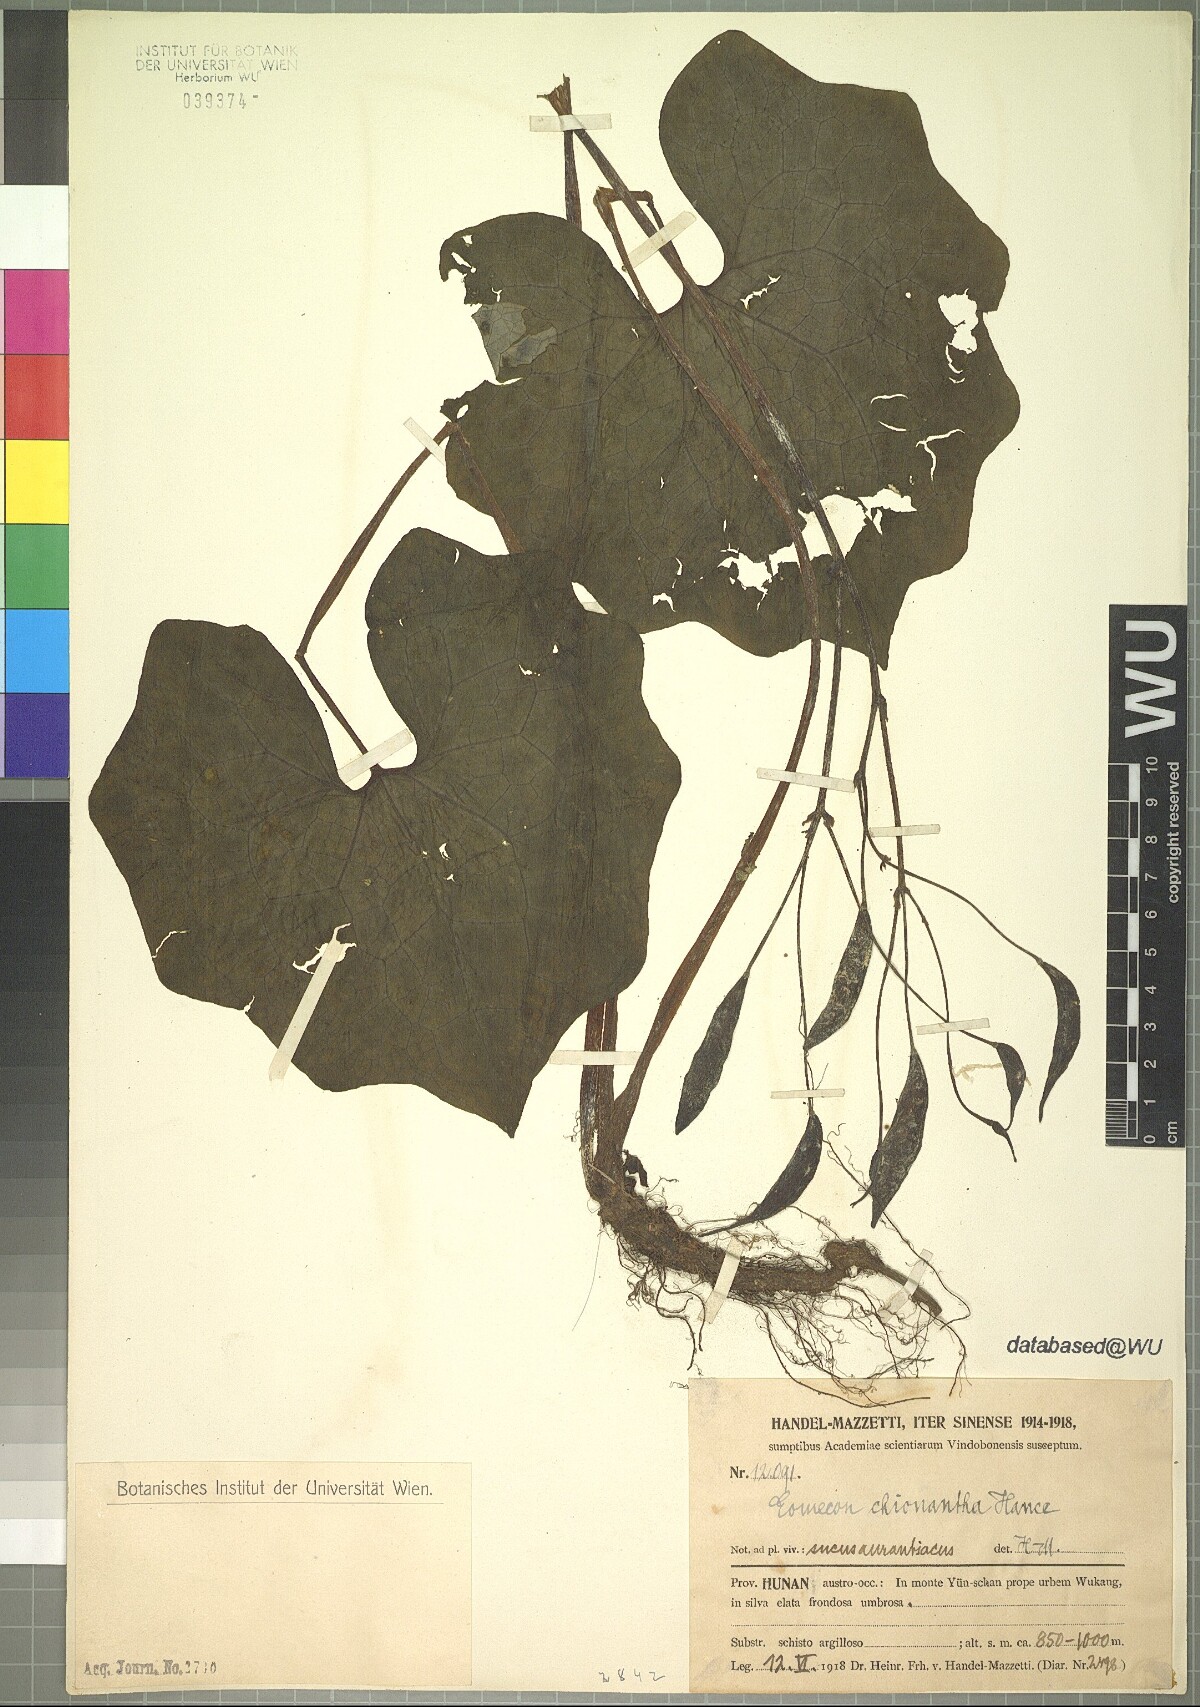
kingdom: Plantae
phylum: Tracheophyta
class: Magnoliopsida
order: Ranunculales
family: Papaveraceae
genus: Eomecon
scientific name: Eomecon chionantha
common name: Dawn-poppy
